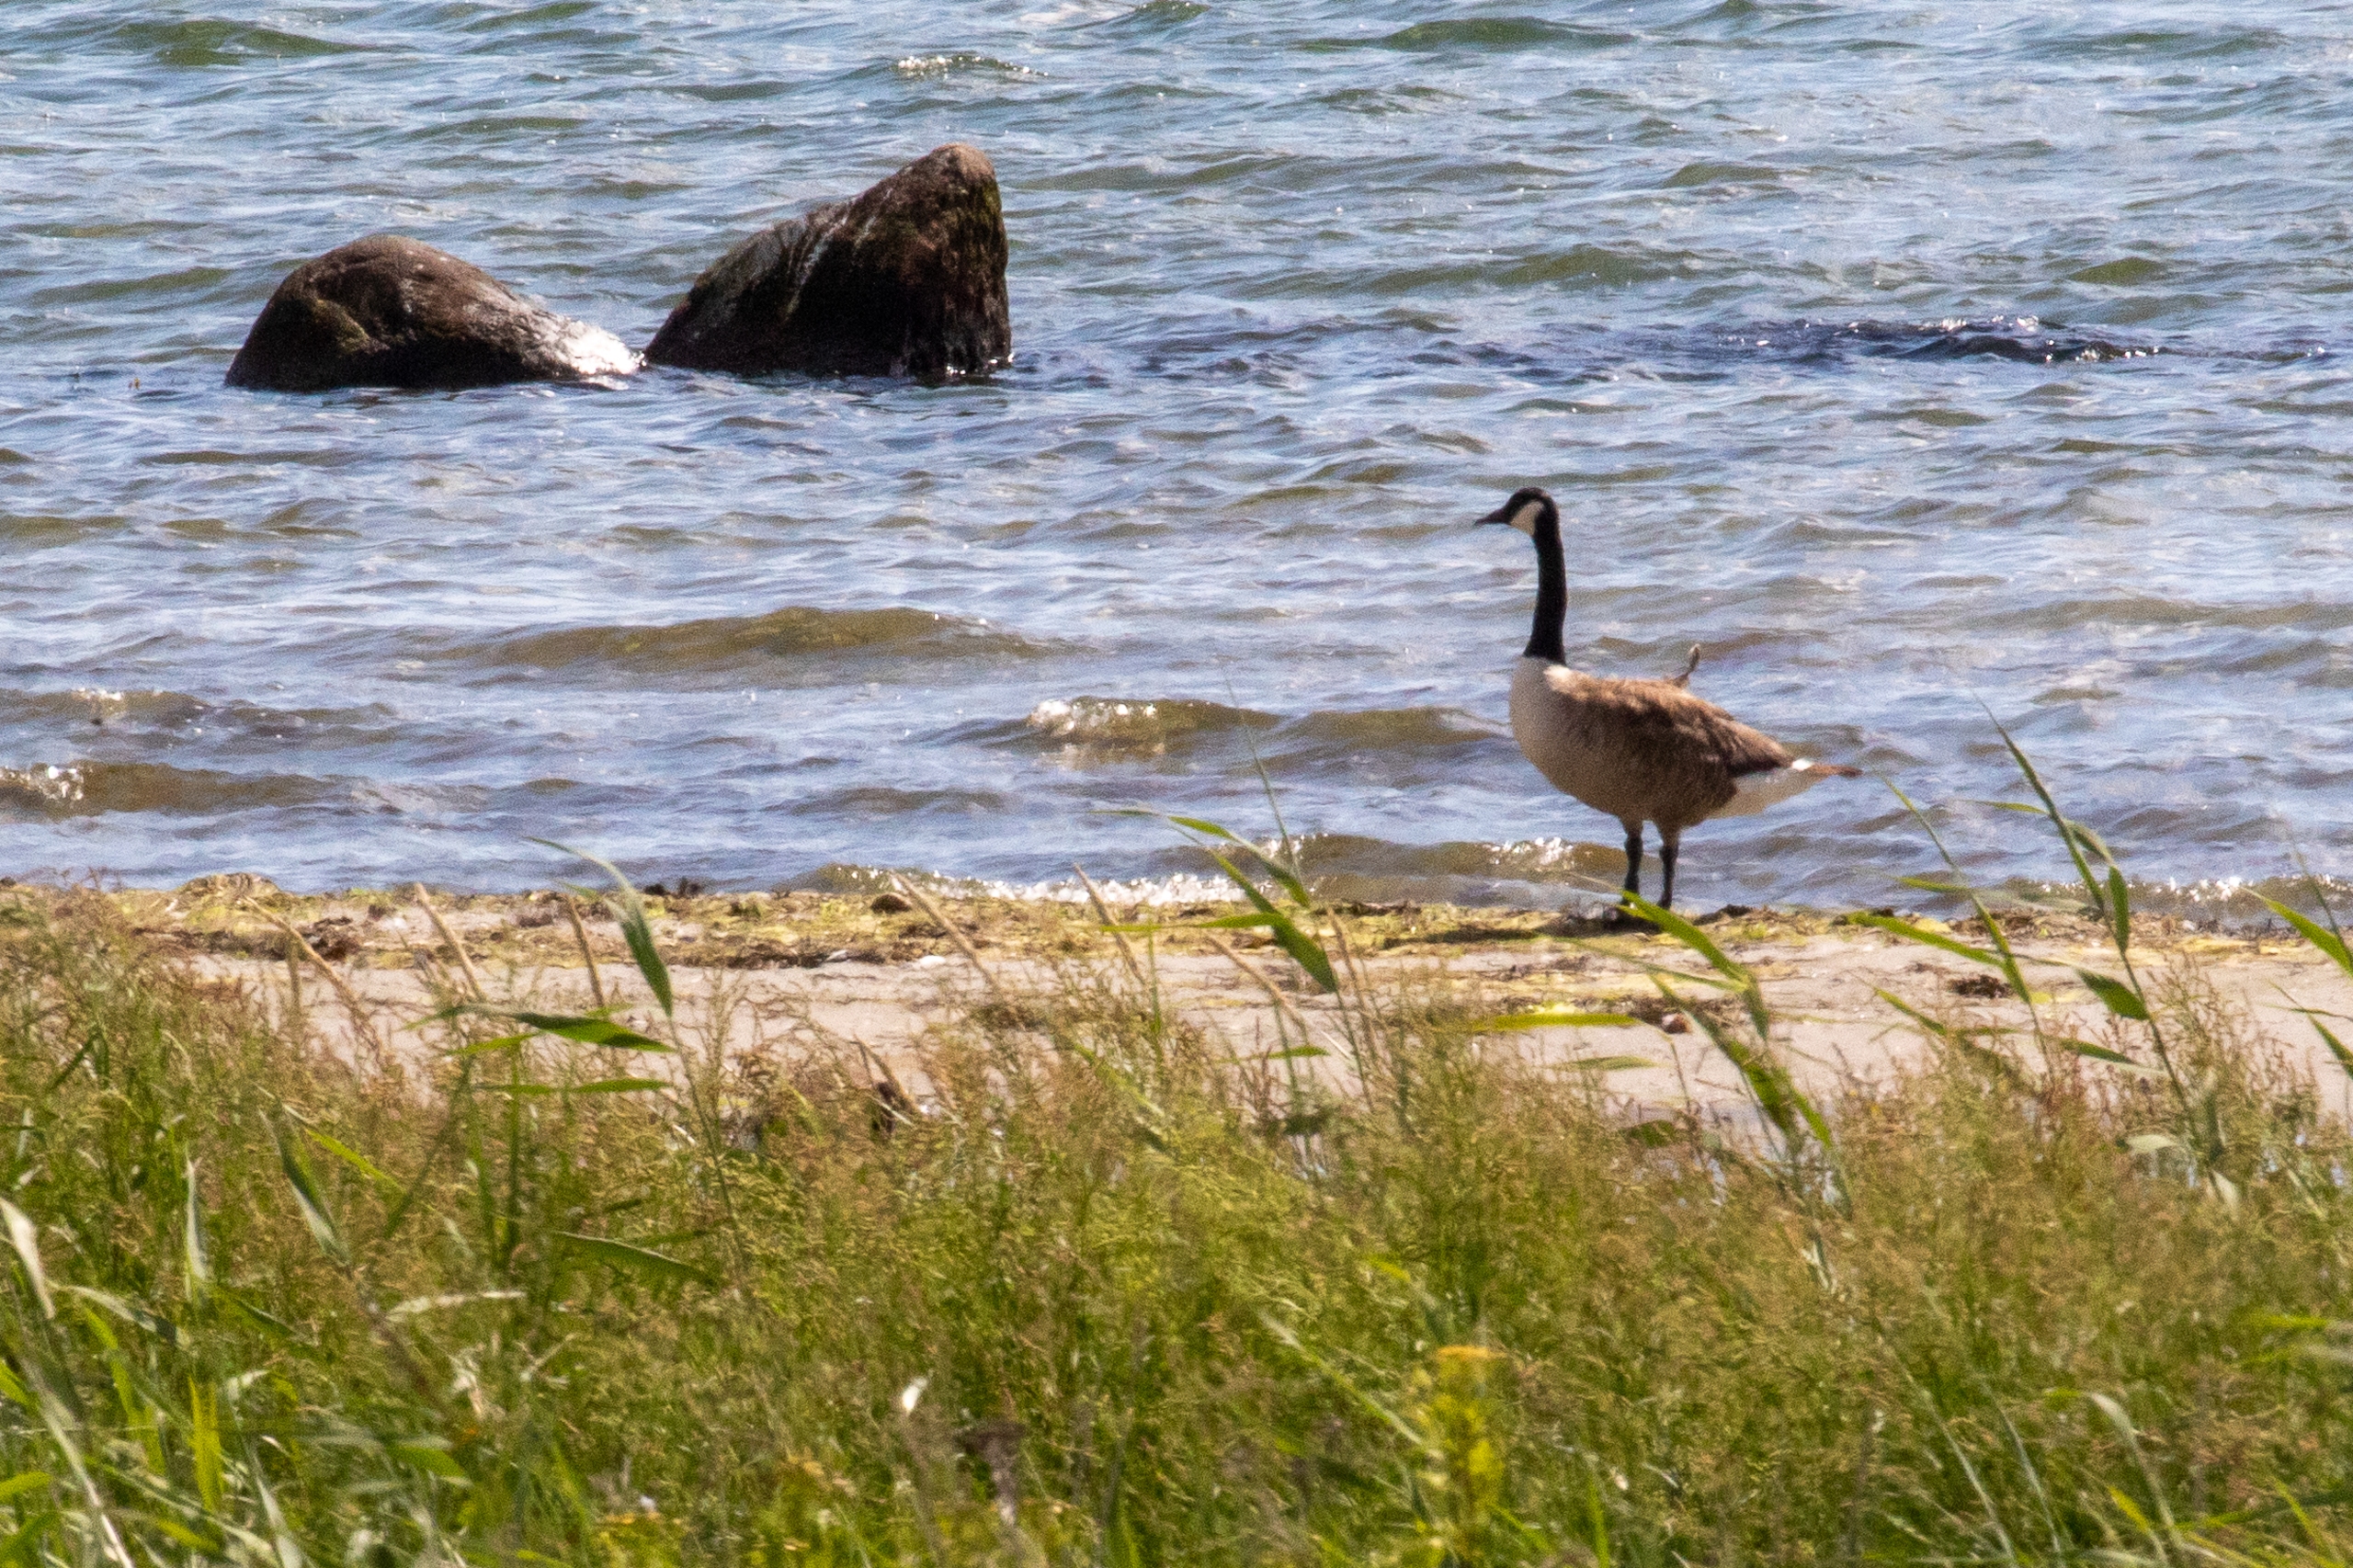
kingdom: Animalia
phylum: Chordata
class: Aves
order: Anseriformes
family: Anatidae
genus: Branta
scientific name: Branta canadensis
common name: Canadagås
